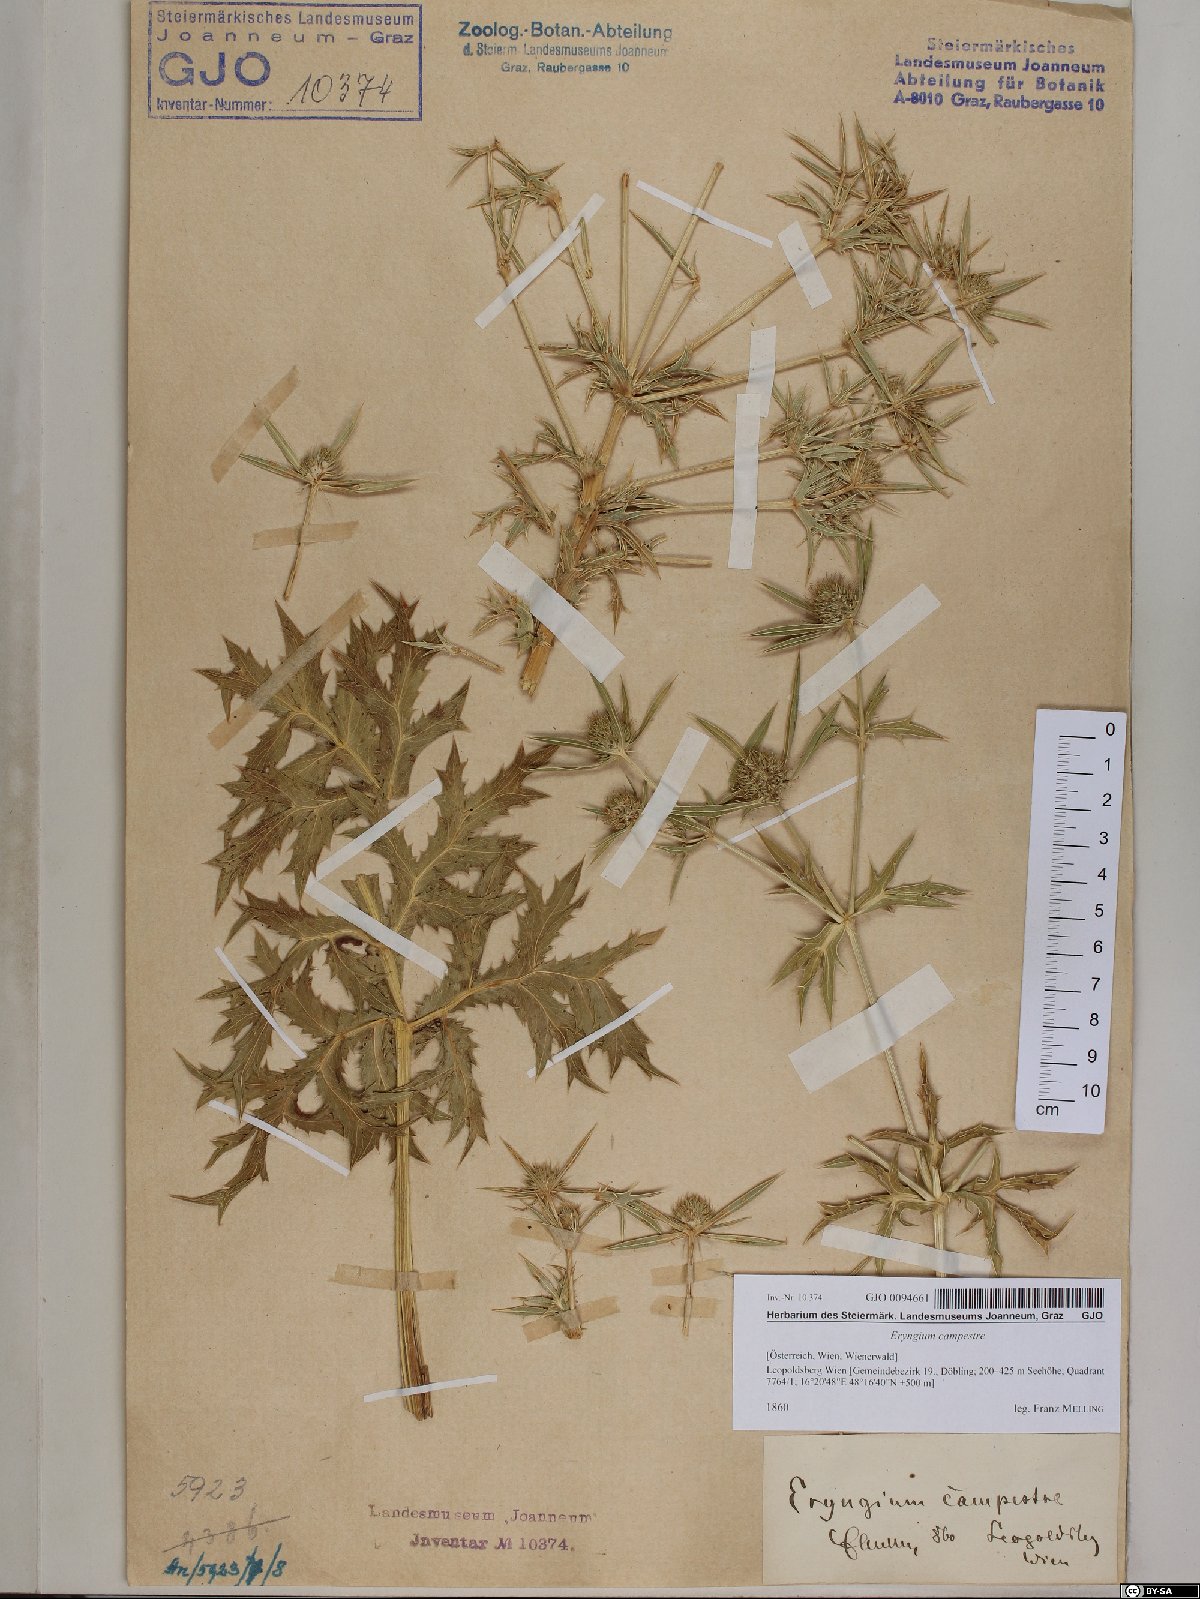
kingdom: Plantae
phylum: Tracheophyta
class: Magnoliopsida
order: Apiales
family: Apiaceae
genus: Eryngium
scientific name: Eryngium campestre
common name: Field eryngo
